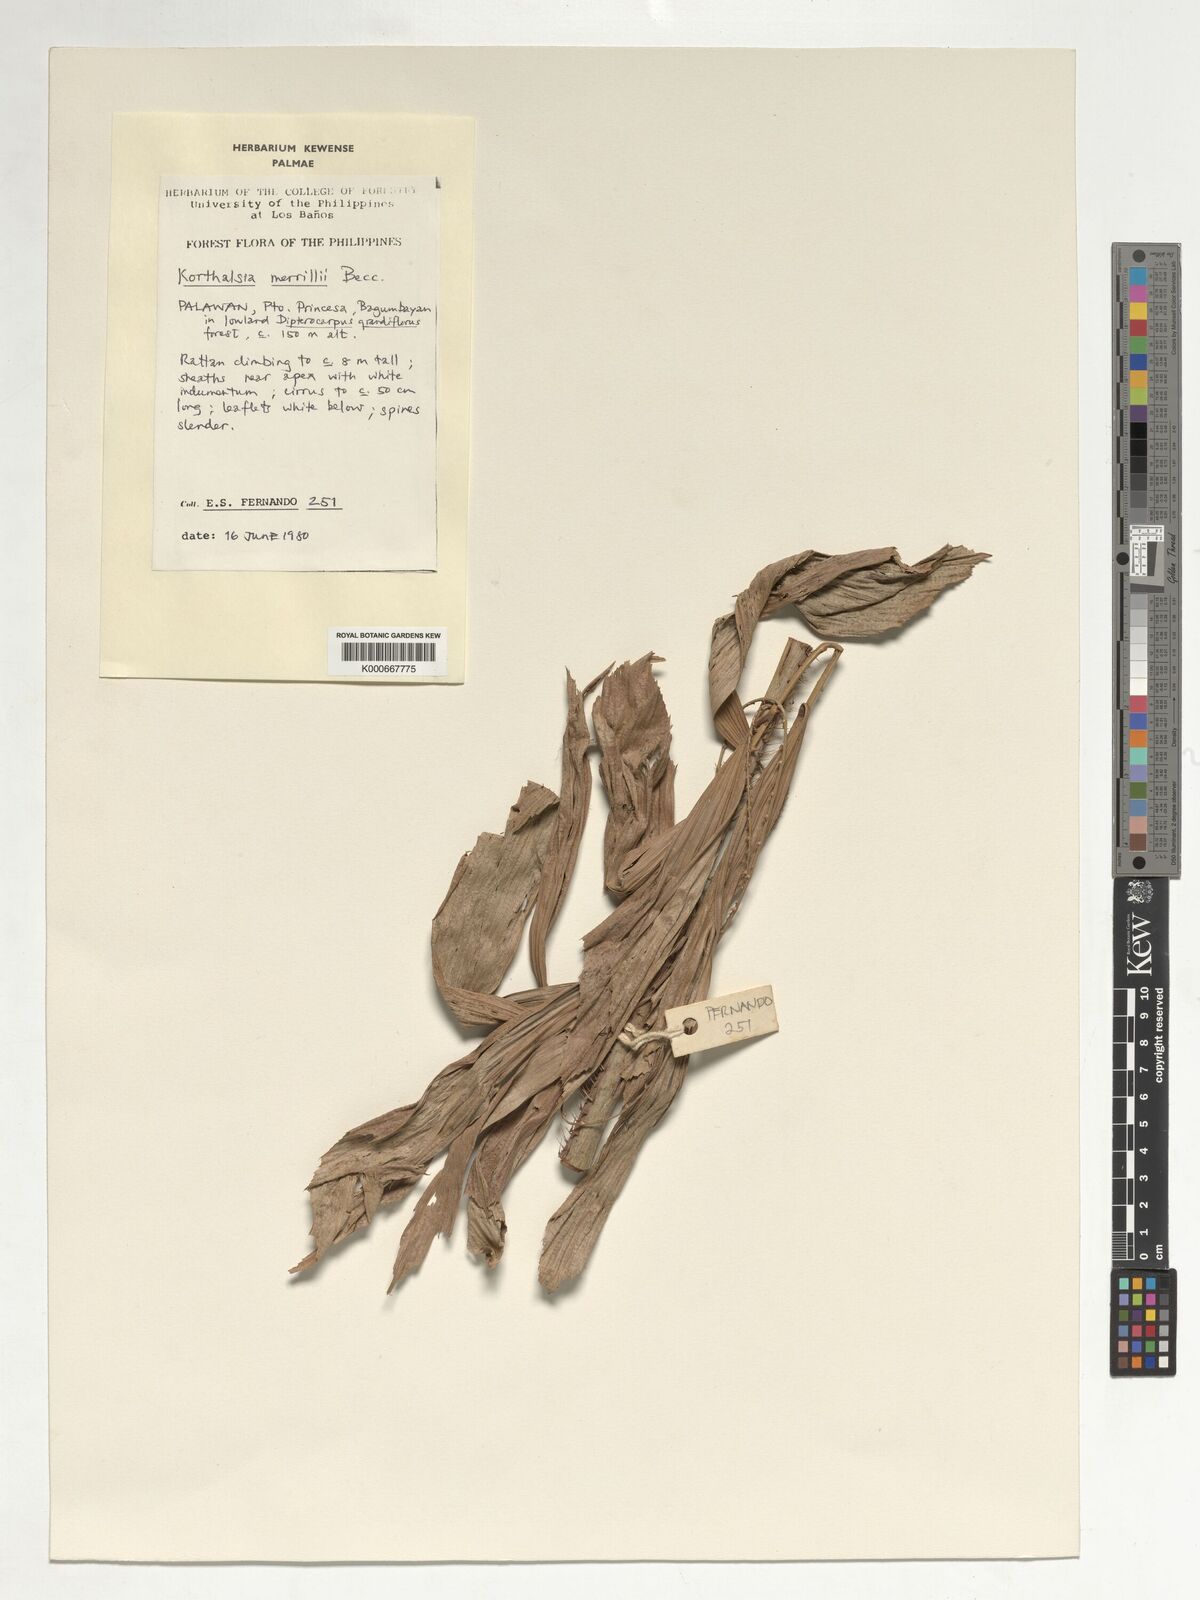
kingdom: Plantae
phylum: Tracheophyta
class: Liliopsida
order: Arecales
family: Arecaceae
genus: Korthalsia
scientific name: Korthalsia merrillii
